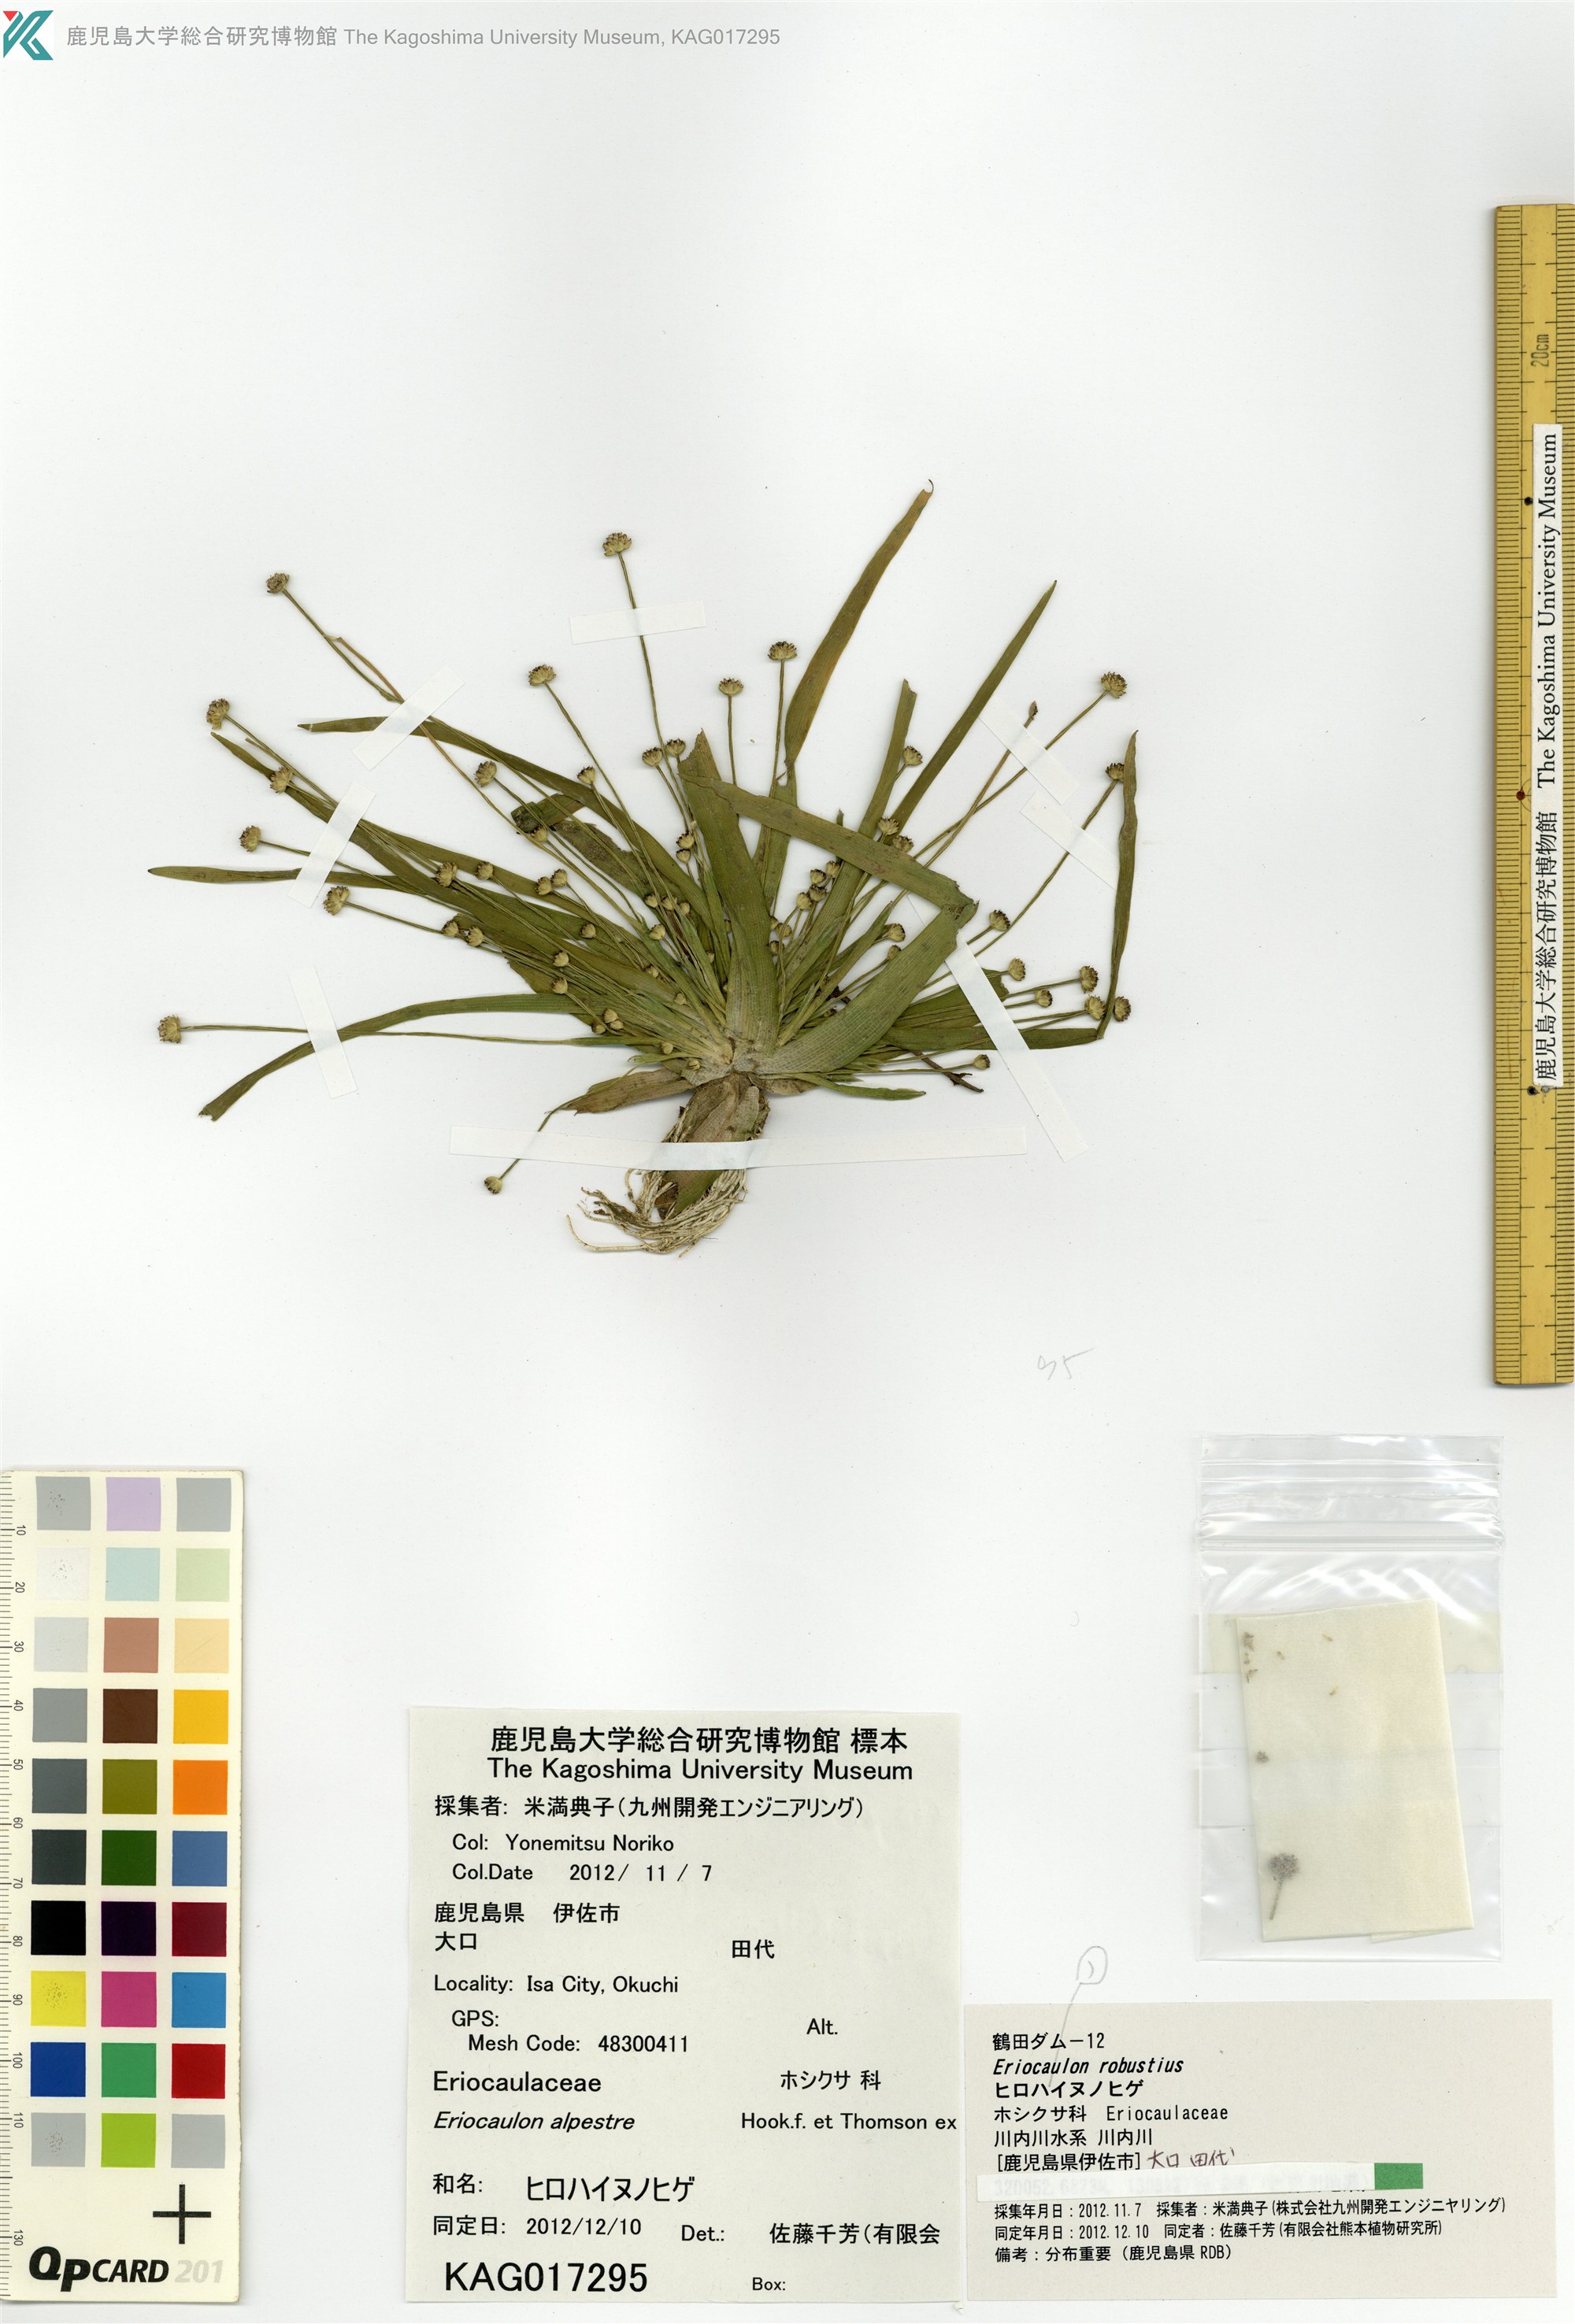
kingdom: Plantae
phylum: Tracheophyta
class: Liliopsida
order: Poales
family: Eriocaulaceae
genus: Eriocaulon
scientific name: Eriocaulon alpestre
